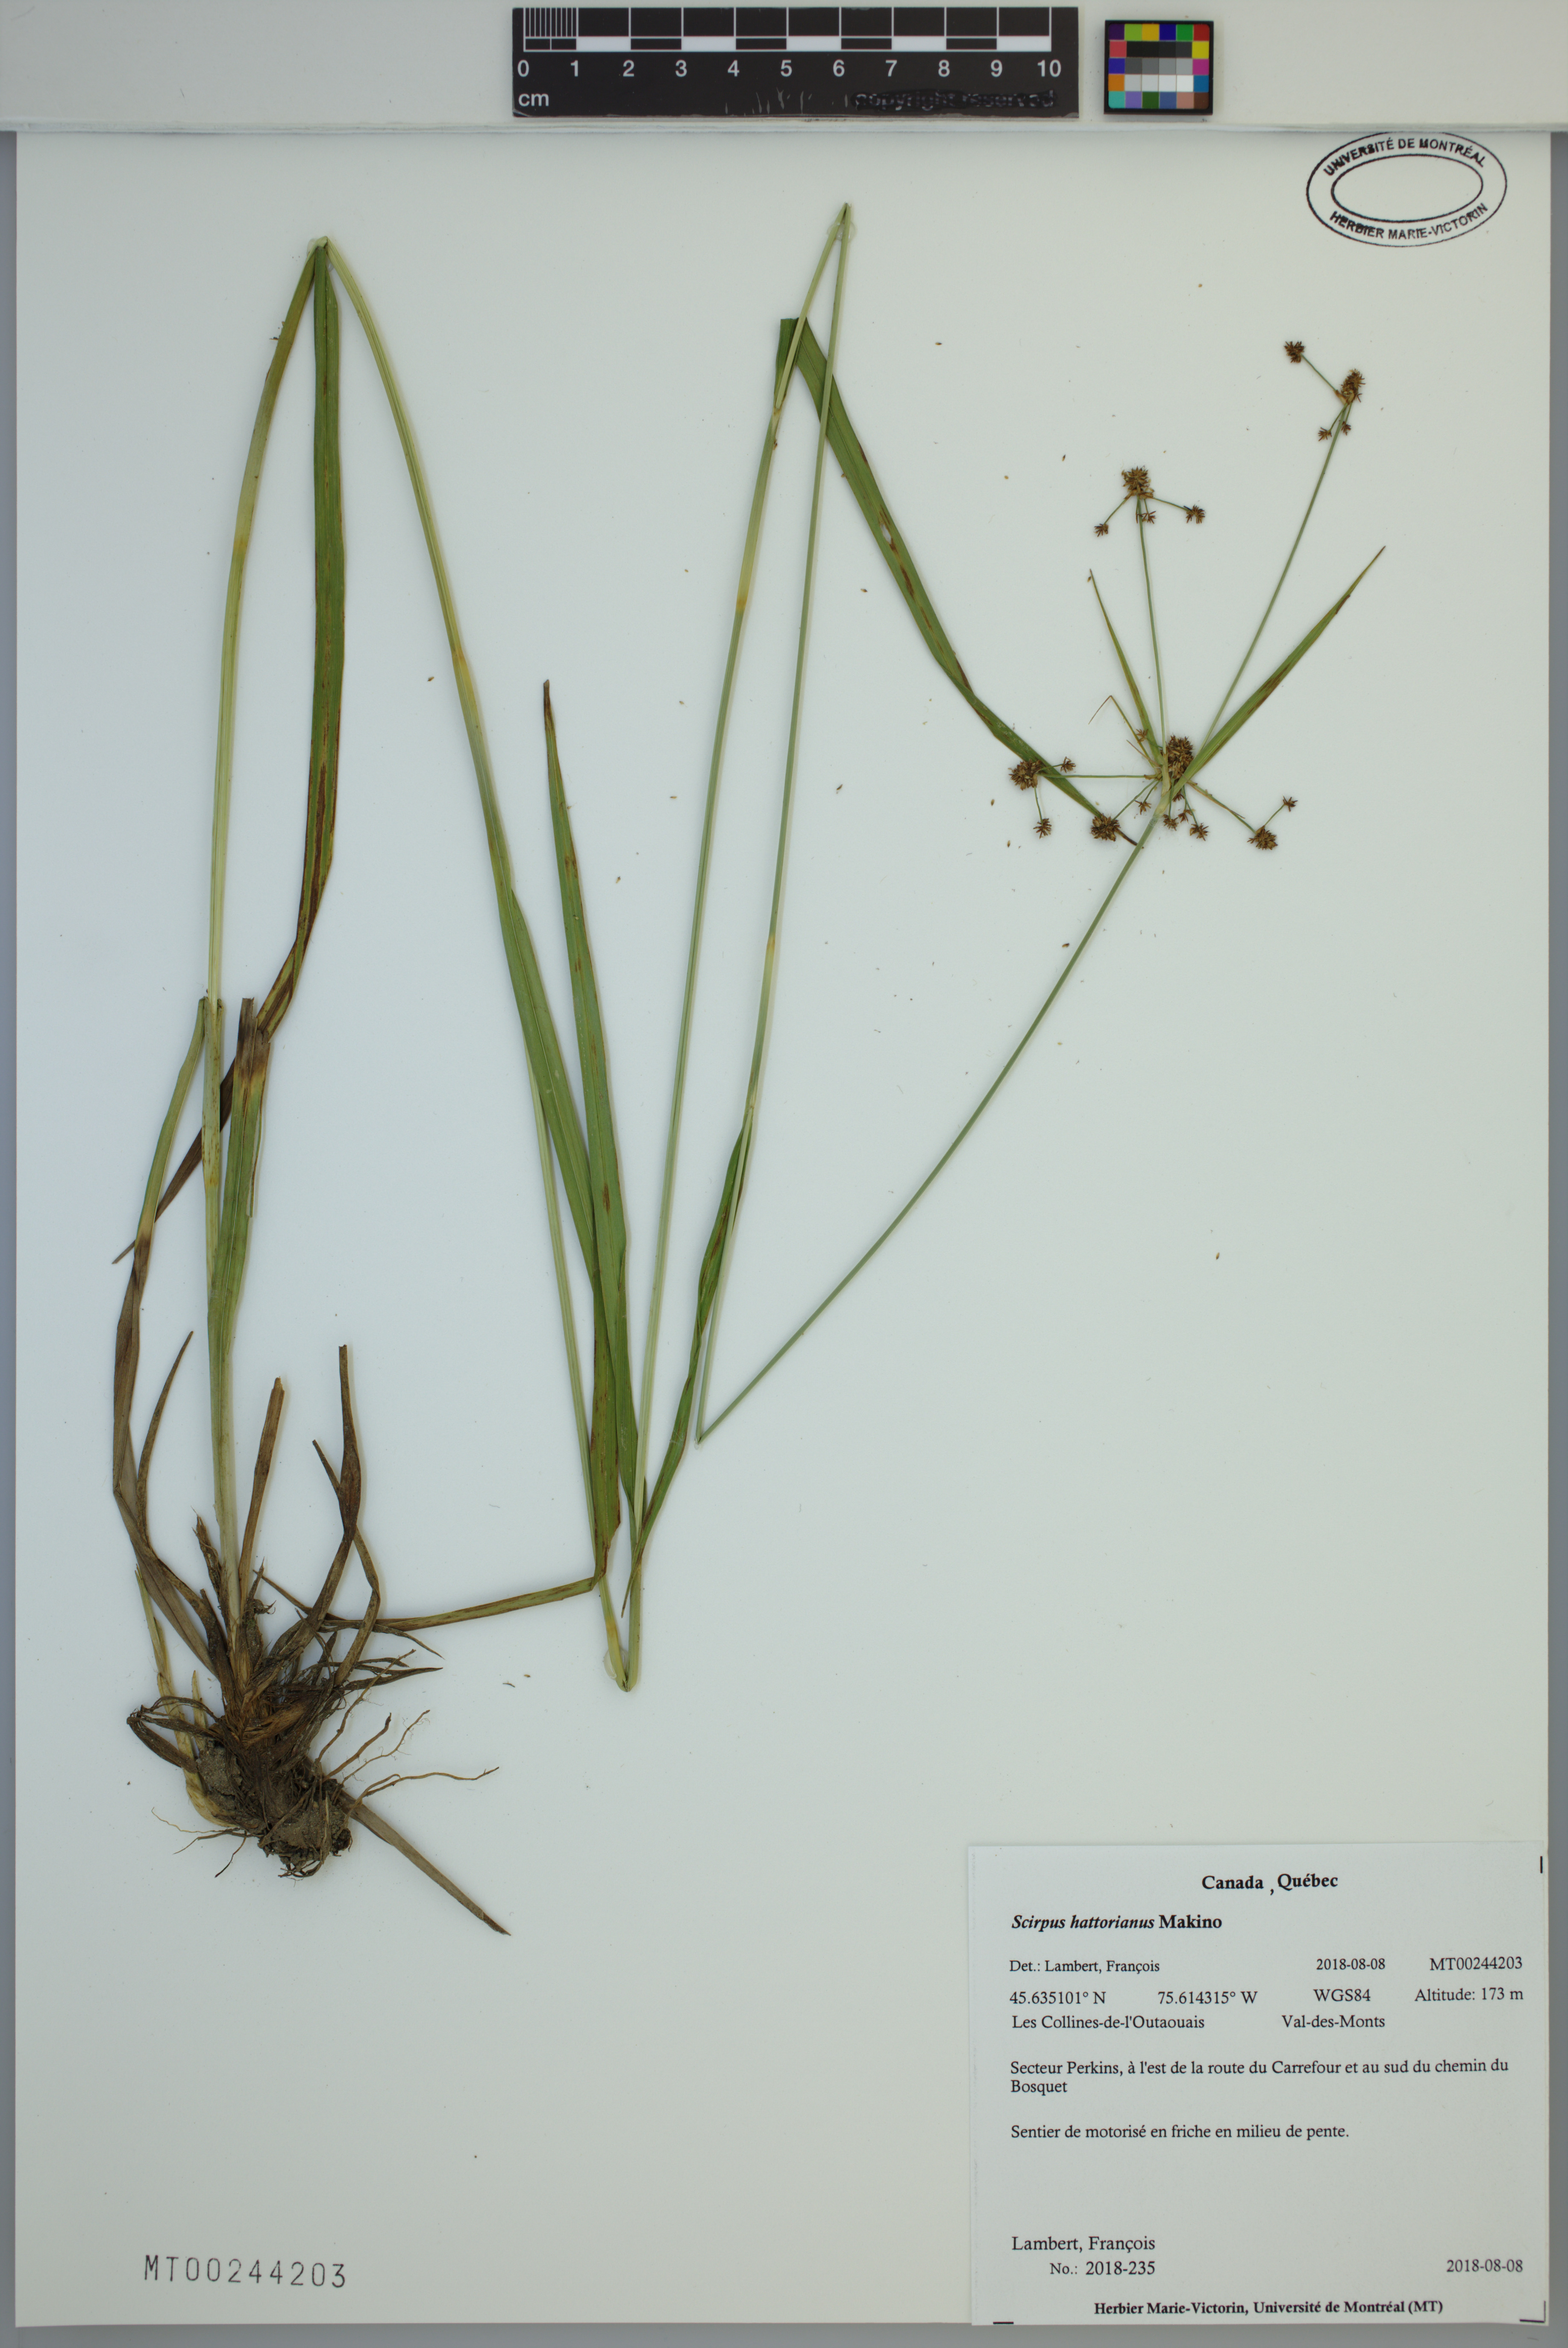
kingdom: Plantae
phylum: Tracheophyta
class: Liliopsida
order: Poales
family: Cyperaceae
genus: Scirpus
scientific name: Scirpus hattorianus
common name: Early dark-green bulrush
